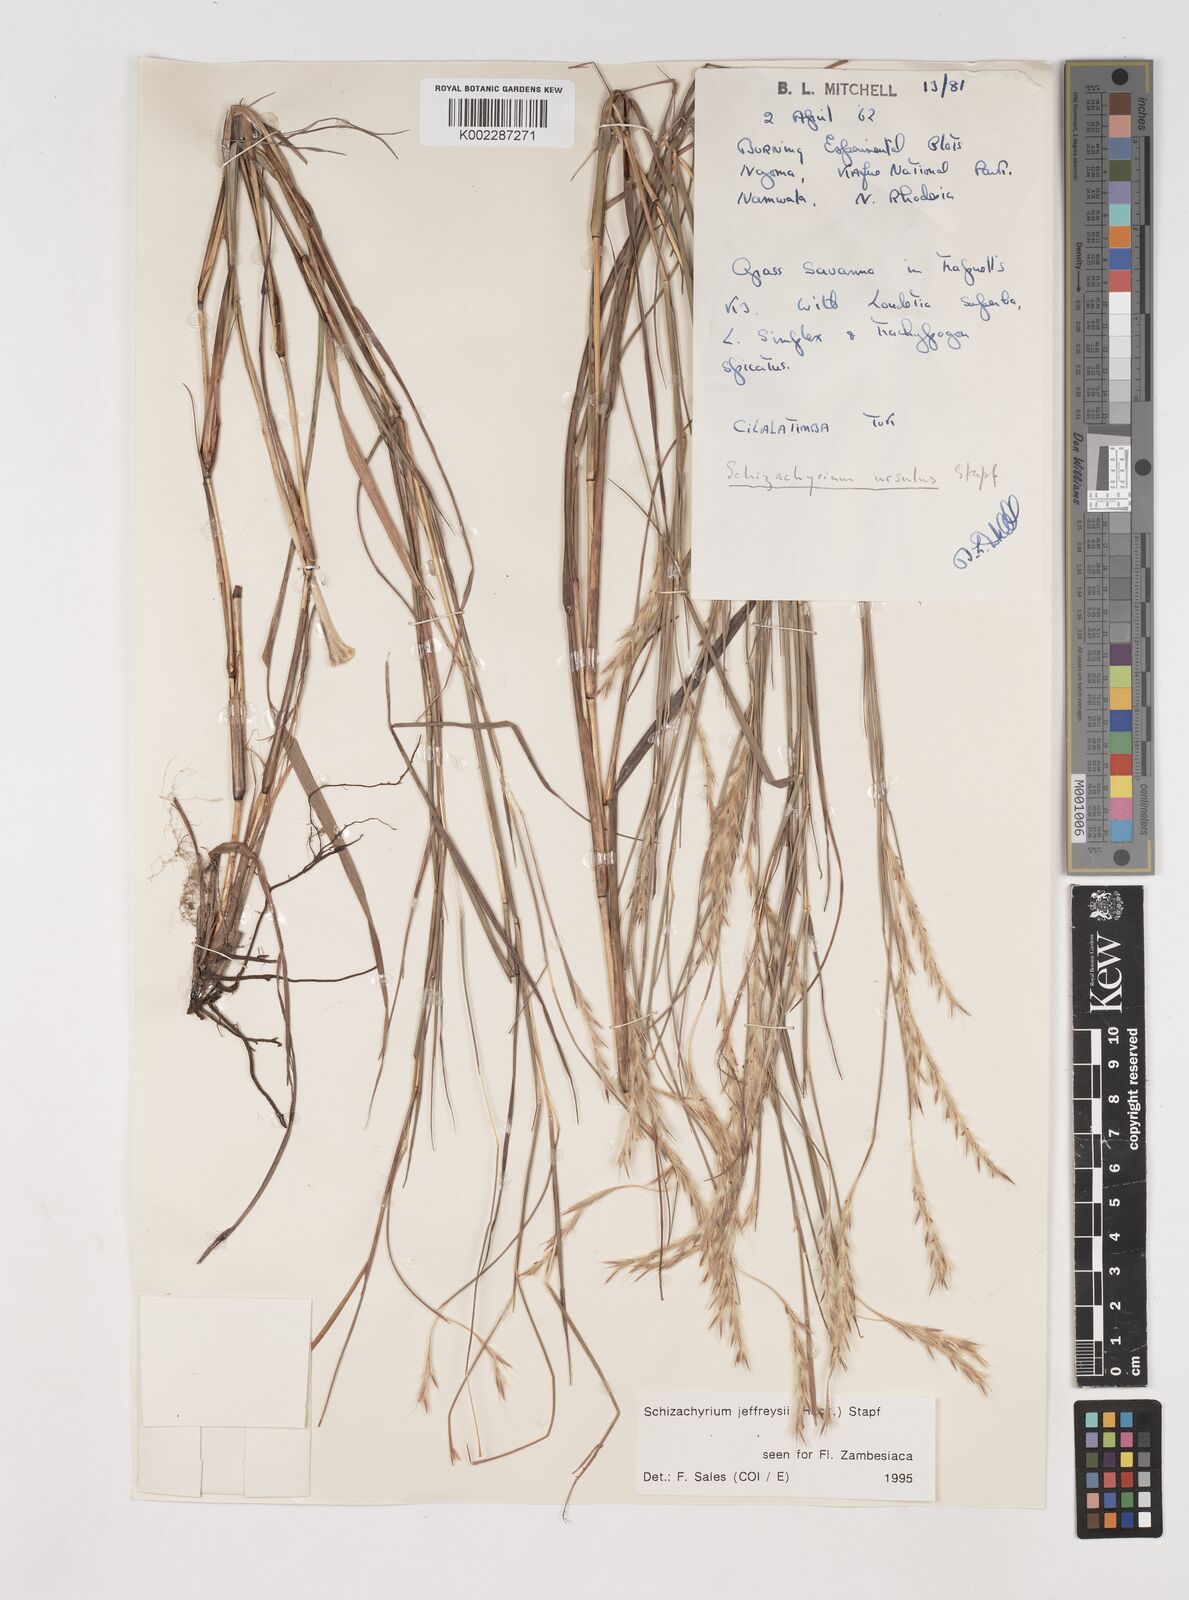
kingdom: Plantae
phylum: Tracheophyta
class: Liliopsida
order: Poales
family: Poaceae
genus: Schizachyrium
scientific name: Schizachyrium jeffreysii
